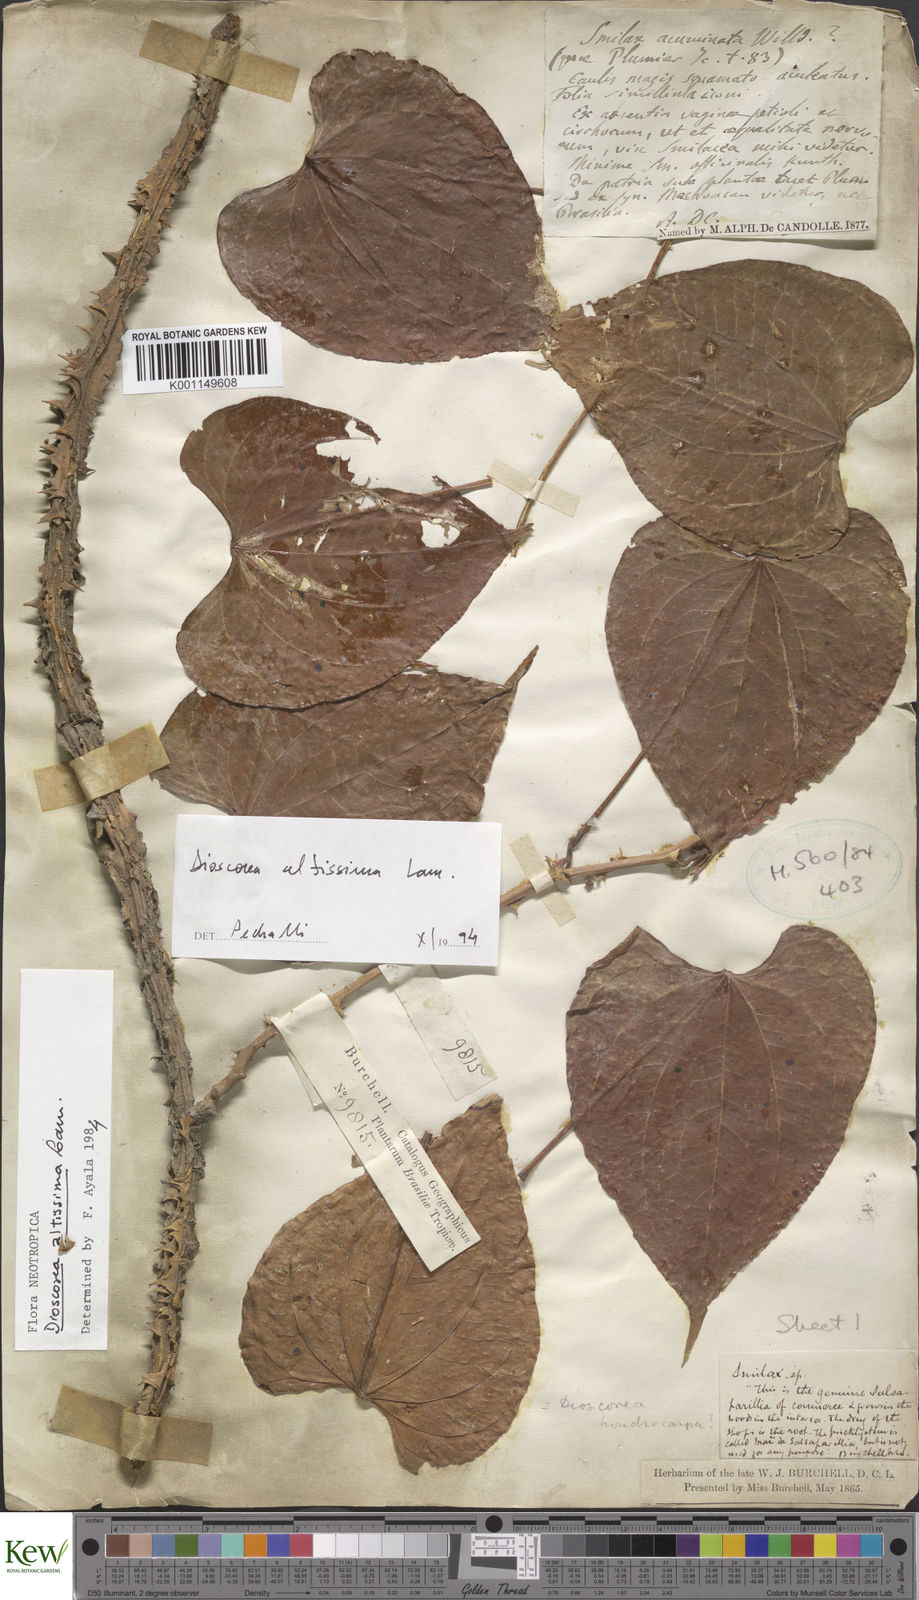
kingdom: Plantae
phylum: Tracheophyta
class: Liliopsida
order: Dioscoreales
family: Dioscoreaceae
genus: Dioscorea
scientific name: Dioscorea chondrocarpa
